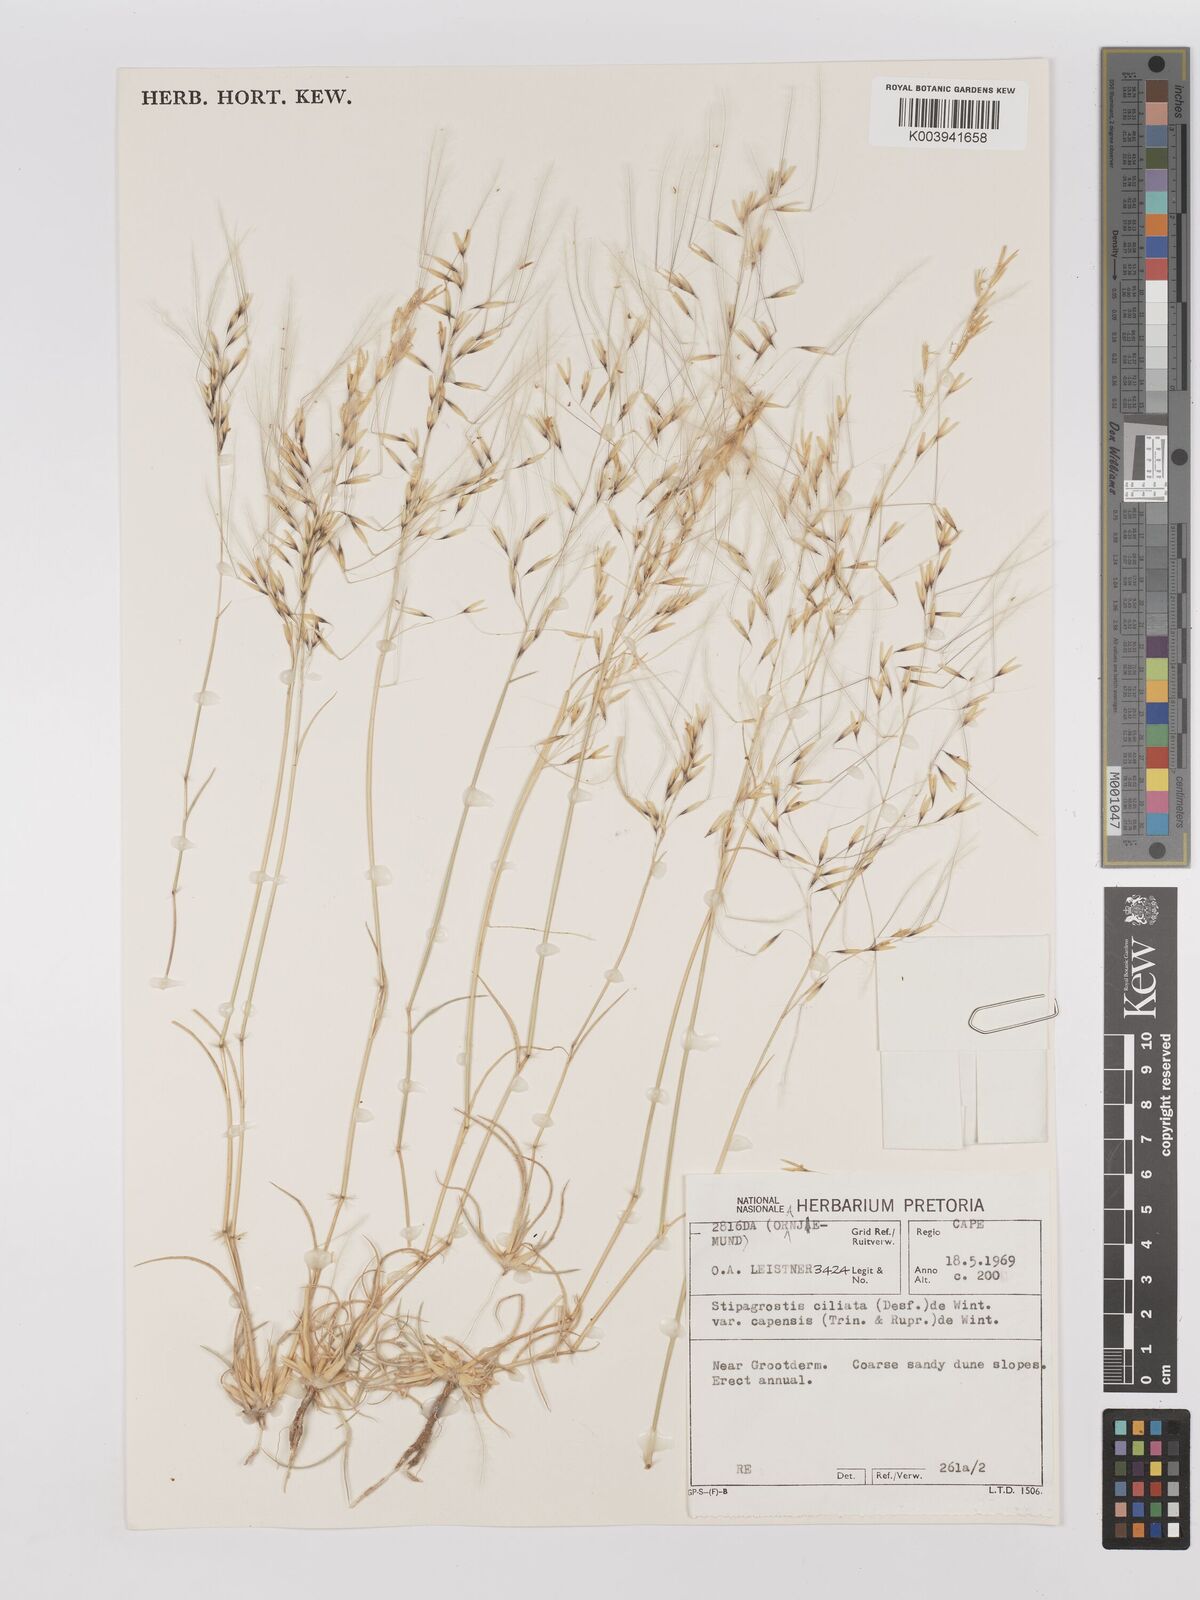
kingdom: Plantae
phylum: Tracheophyta
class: Liliopsida
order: Poales
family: Poaceae
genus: Stipagrostis
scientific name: Stipagrostis ciliata
